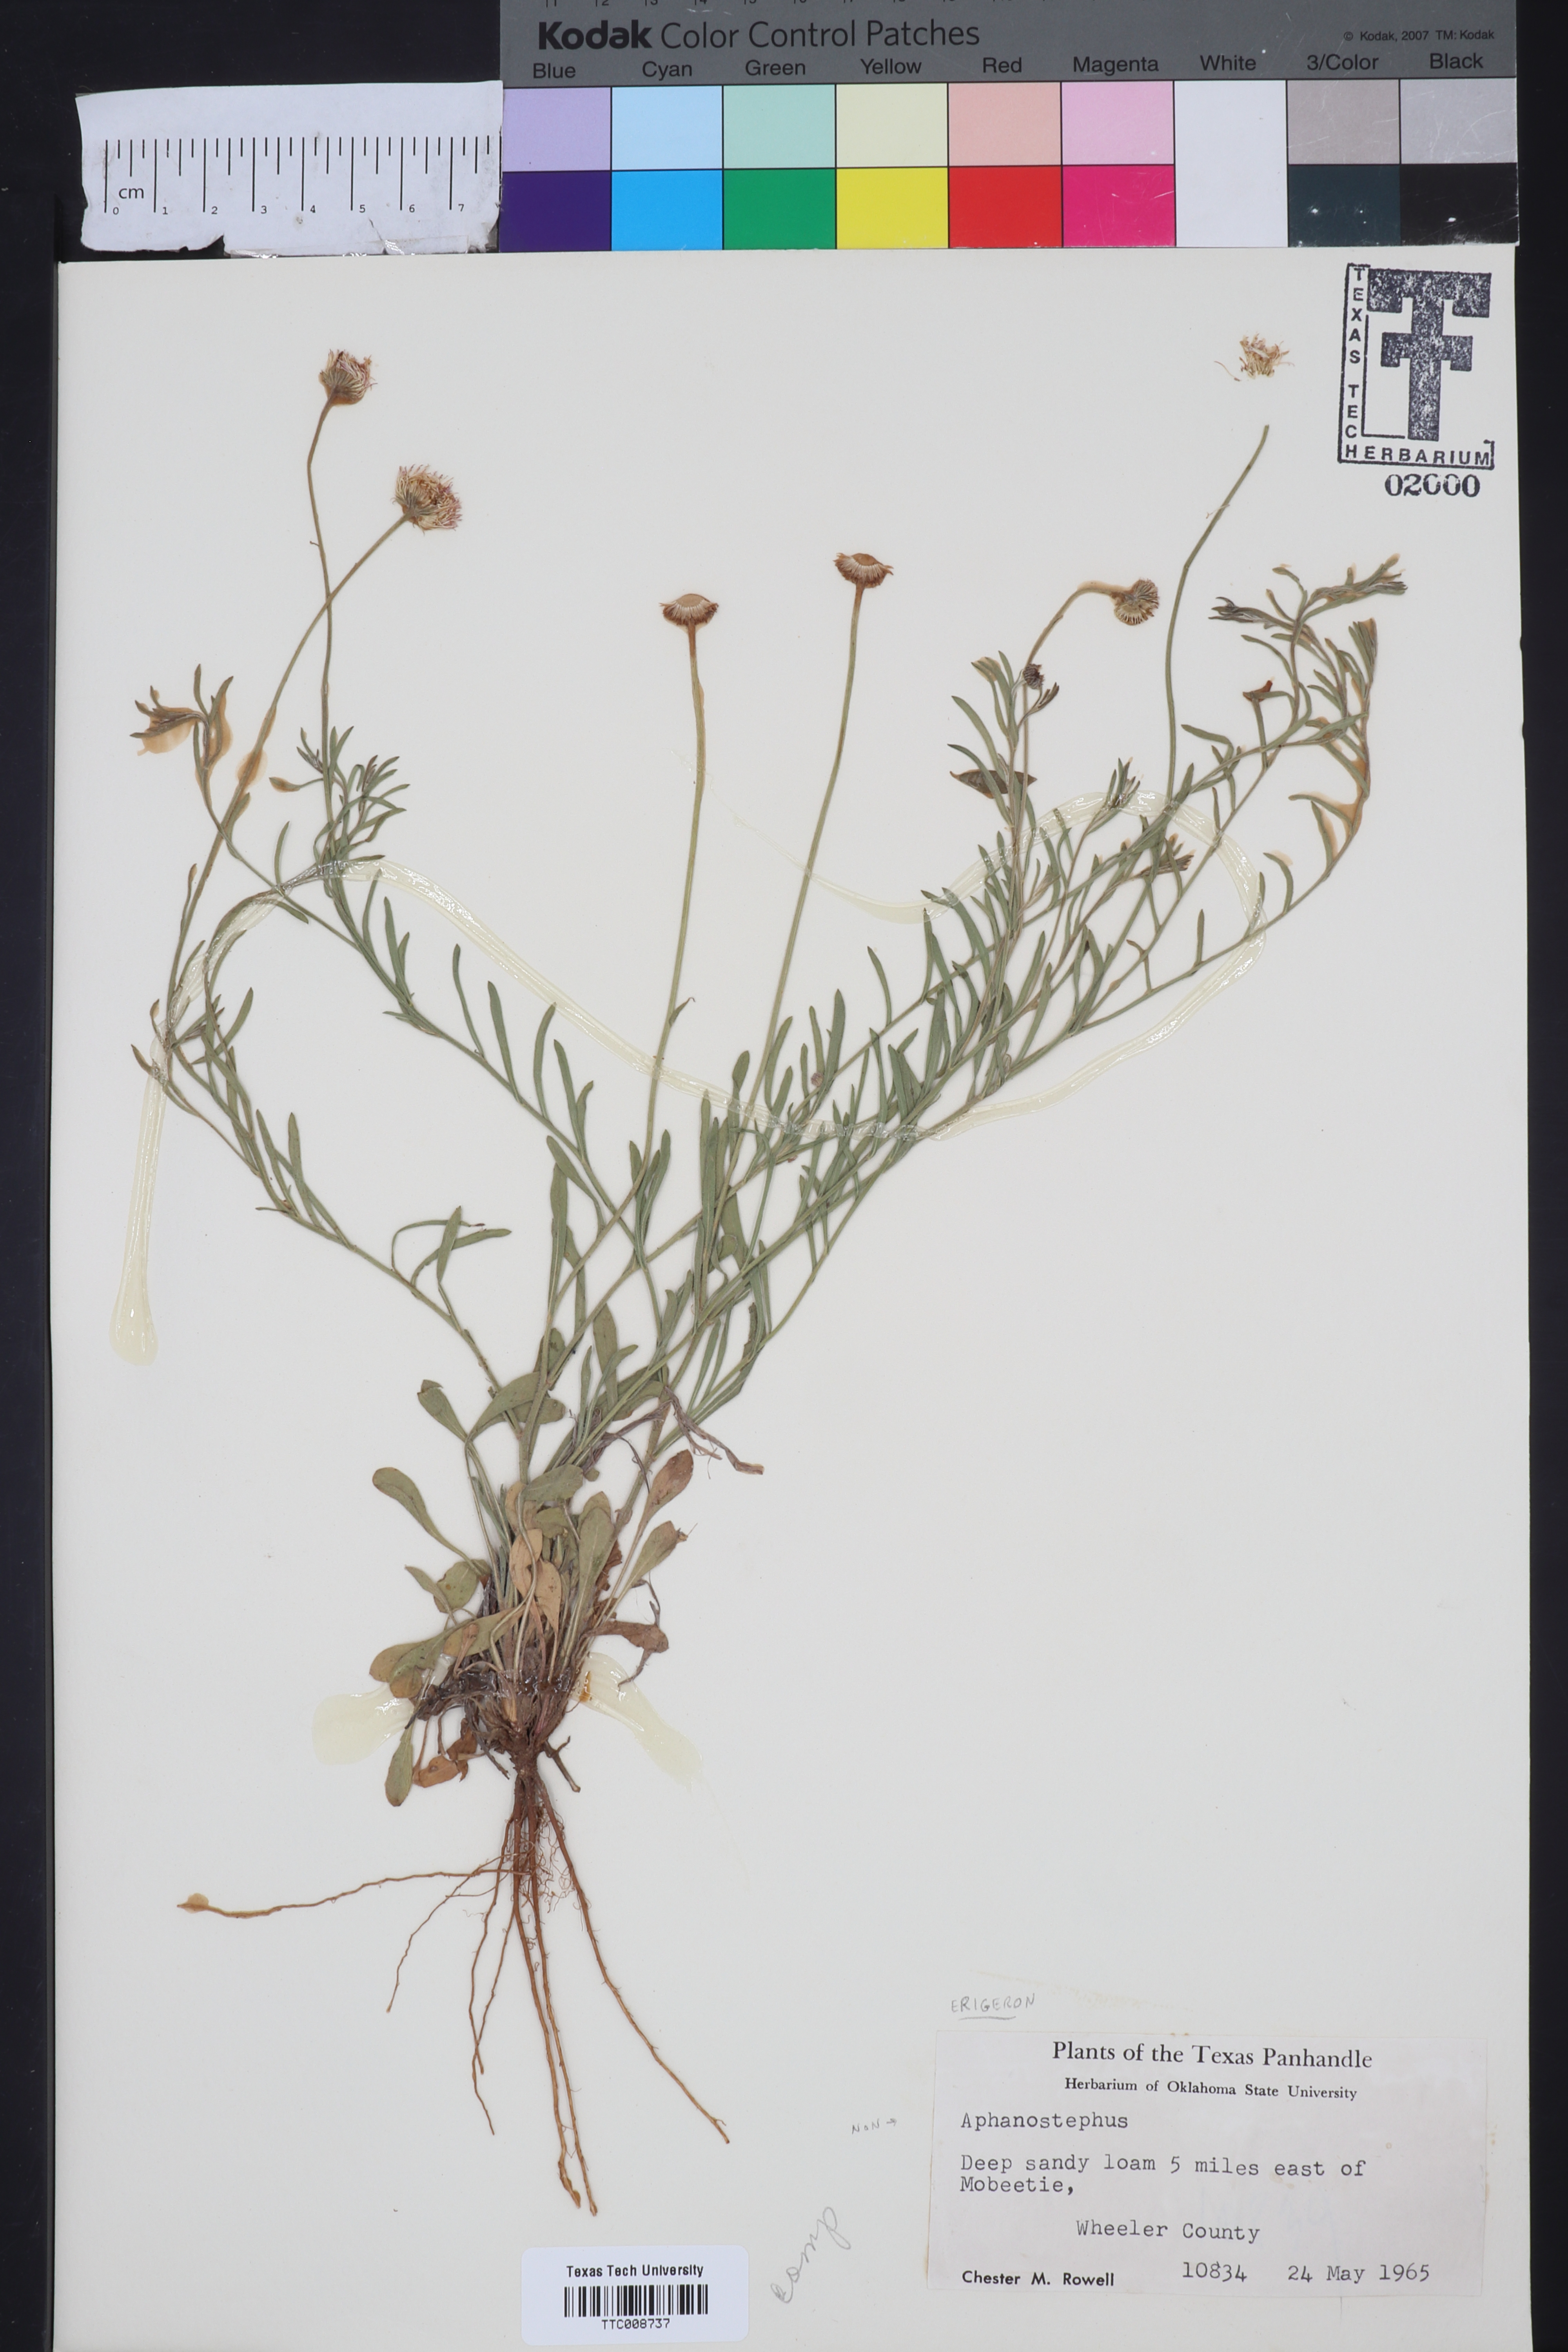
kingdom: Plantae
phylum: Tracheophyta
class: Magnoliopsida
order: Asterales
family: Asteraceae
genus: Erigeron
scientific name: Erigeron
